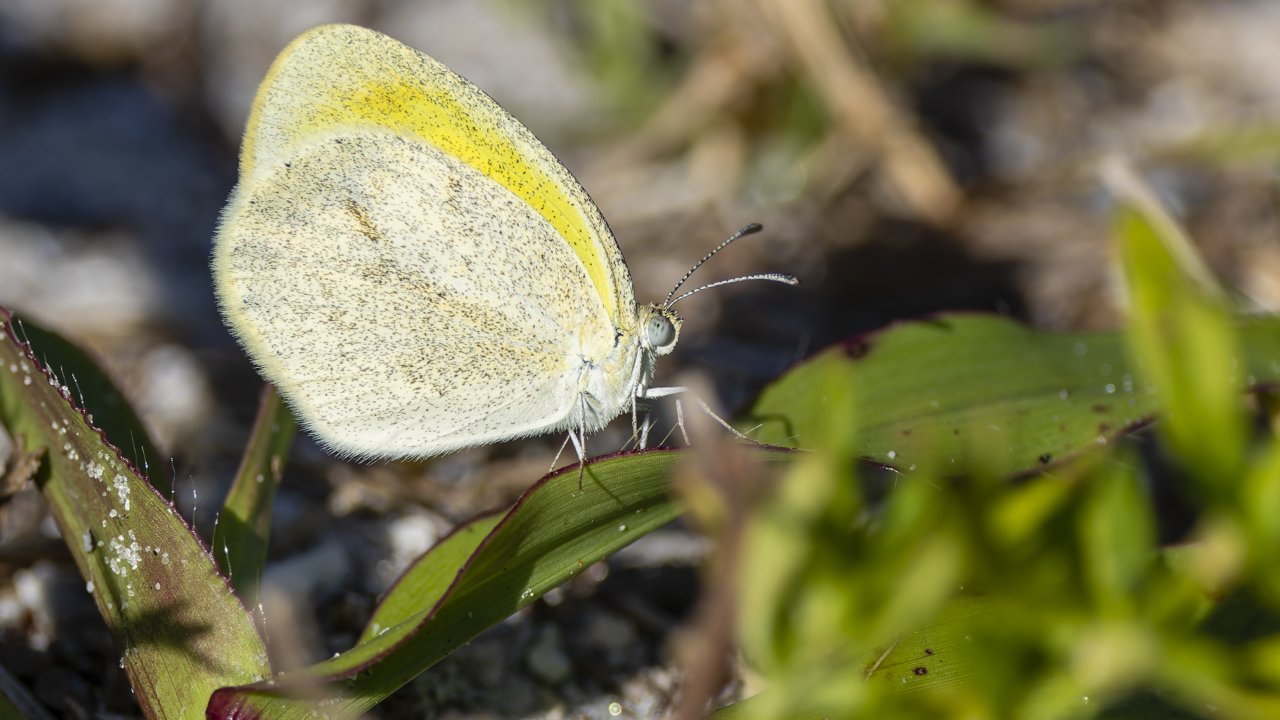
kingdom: Animalia
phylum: Arthropoda
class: Insecta
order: Lepidoptera
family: Pieridae
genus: Eurema
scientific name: Eurema daira
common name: Barred Yellow
